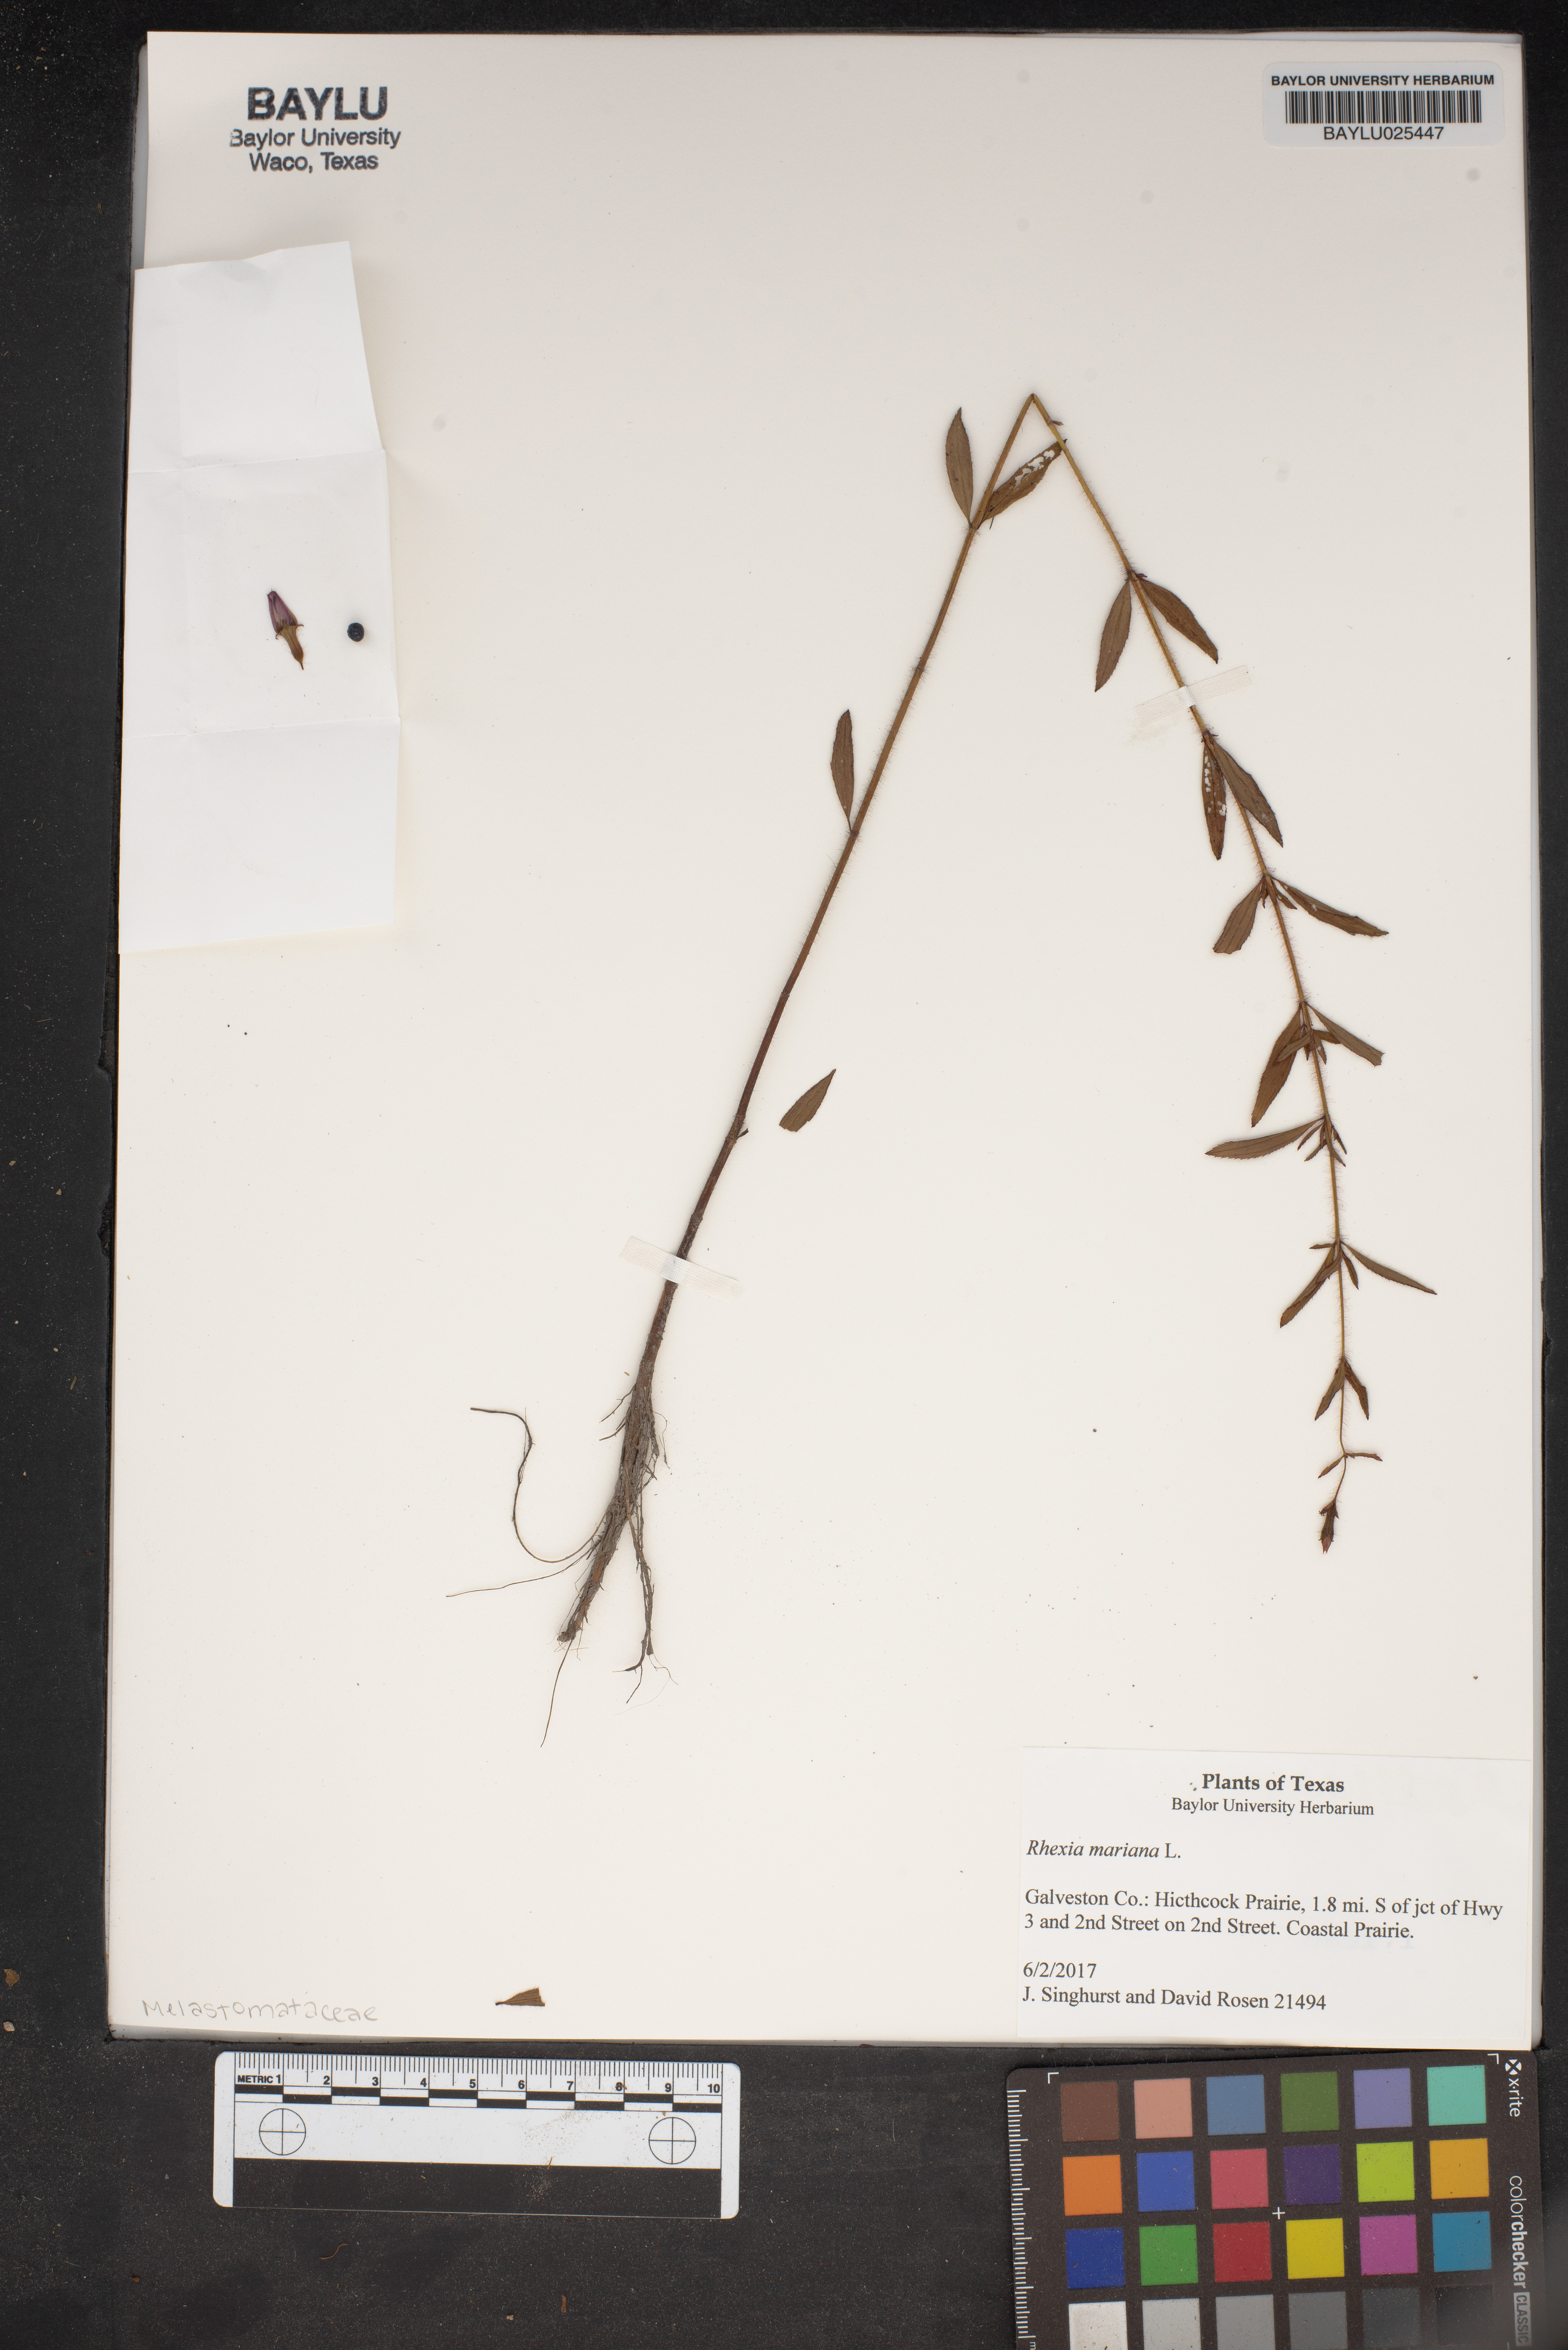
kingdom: Plantae
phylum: Tracheophyta
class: Magnoliopsida
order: Myrtales
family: Melastomataceae
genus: Rhexia
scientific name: Rhexia mariana
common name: Dull meadow-pitcher
